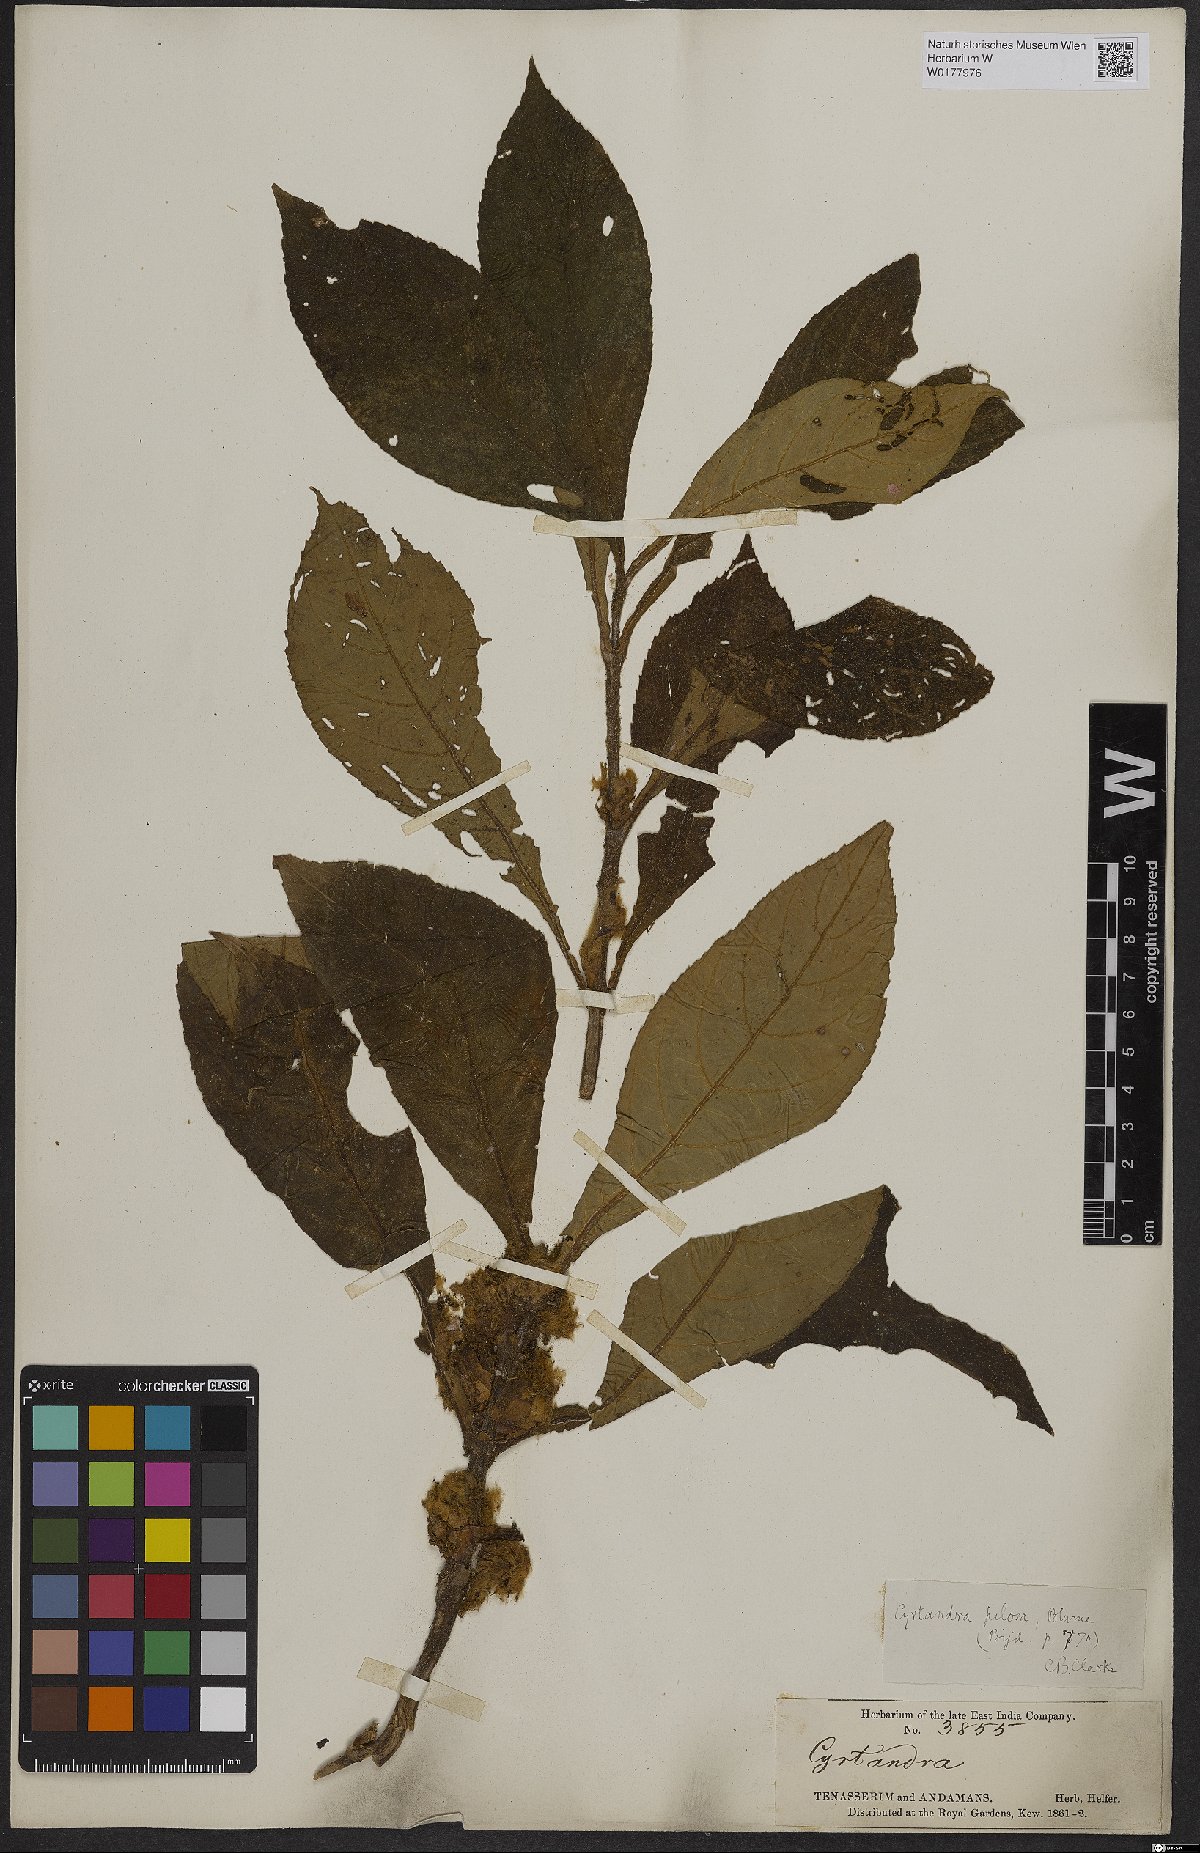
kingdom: Plantae
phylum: Tracheophyta
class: Magnoliopsida
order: Lamiales
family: Gesneriaceae
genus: Cyrtandra
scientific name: Cyrtandra
